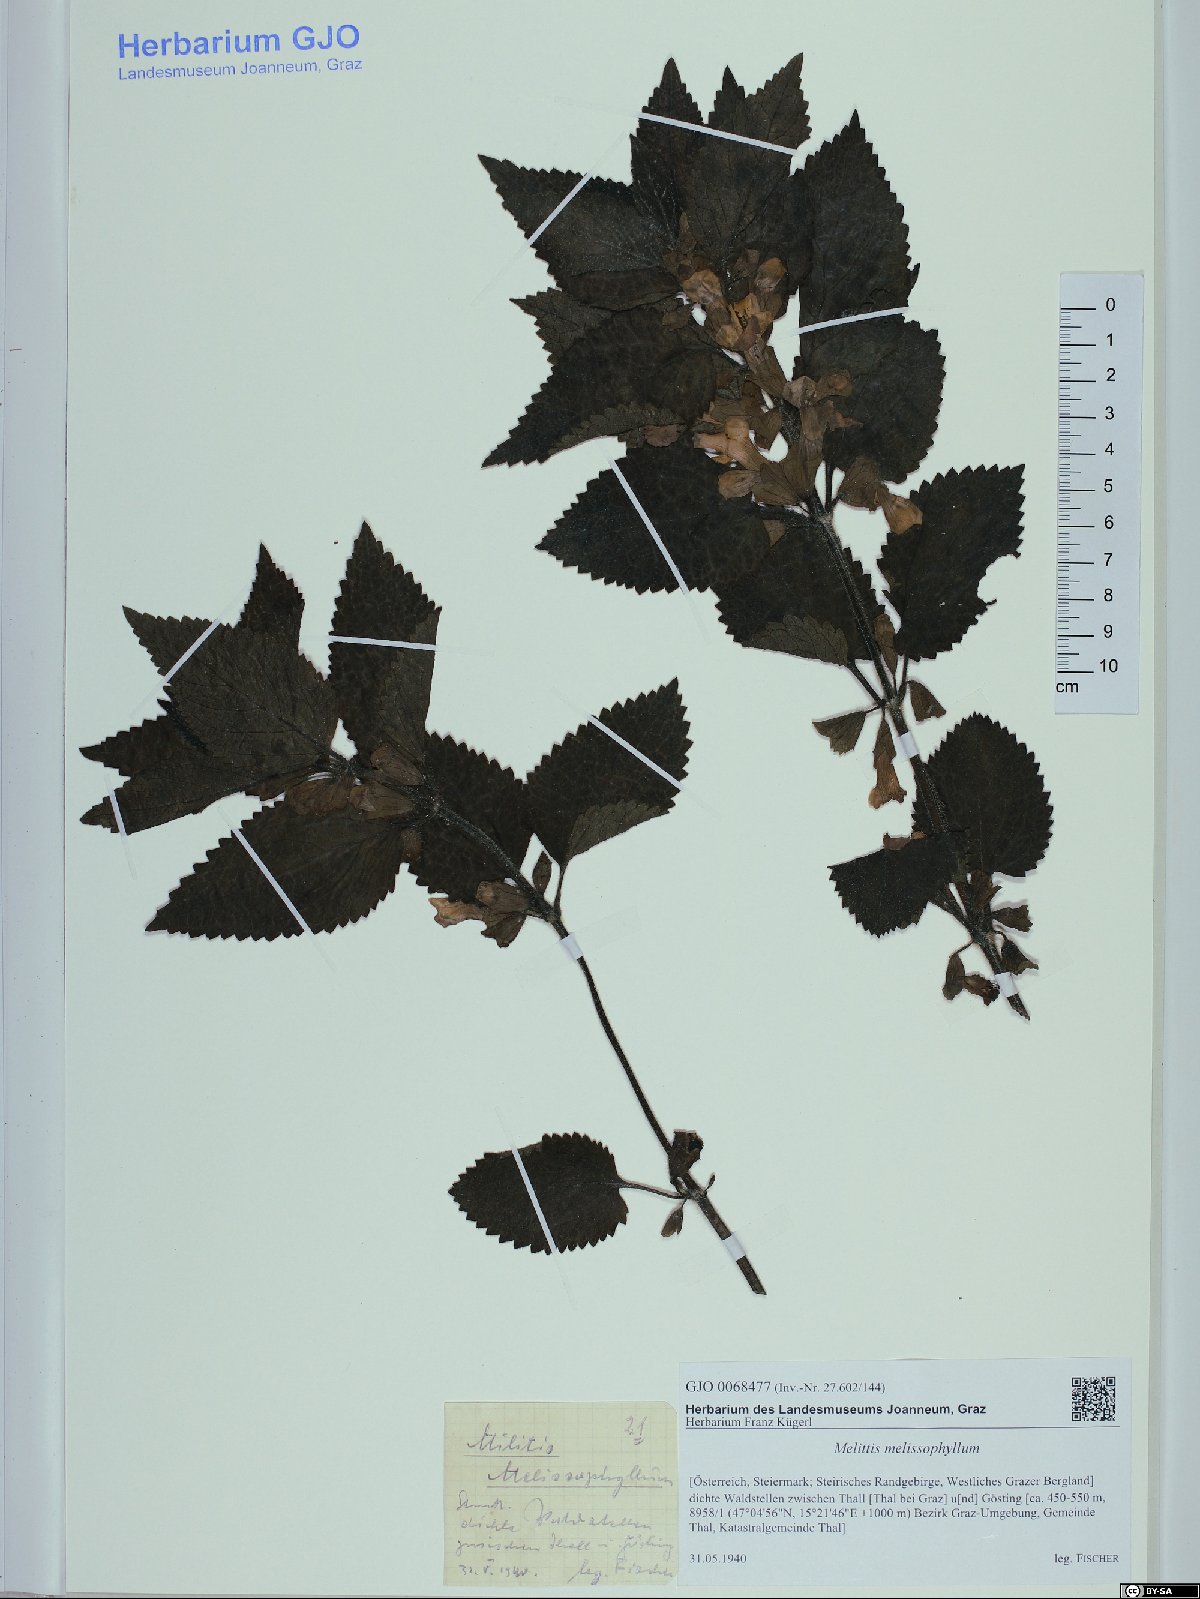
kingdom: Plantae
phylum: Tracheophyta
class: Magnoliopsida
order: Lamiales
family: Lamiaceae
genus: Melittis
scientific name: Melittis melissophyllum
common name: Bastard balm
